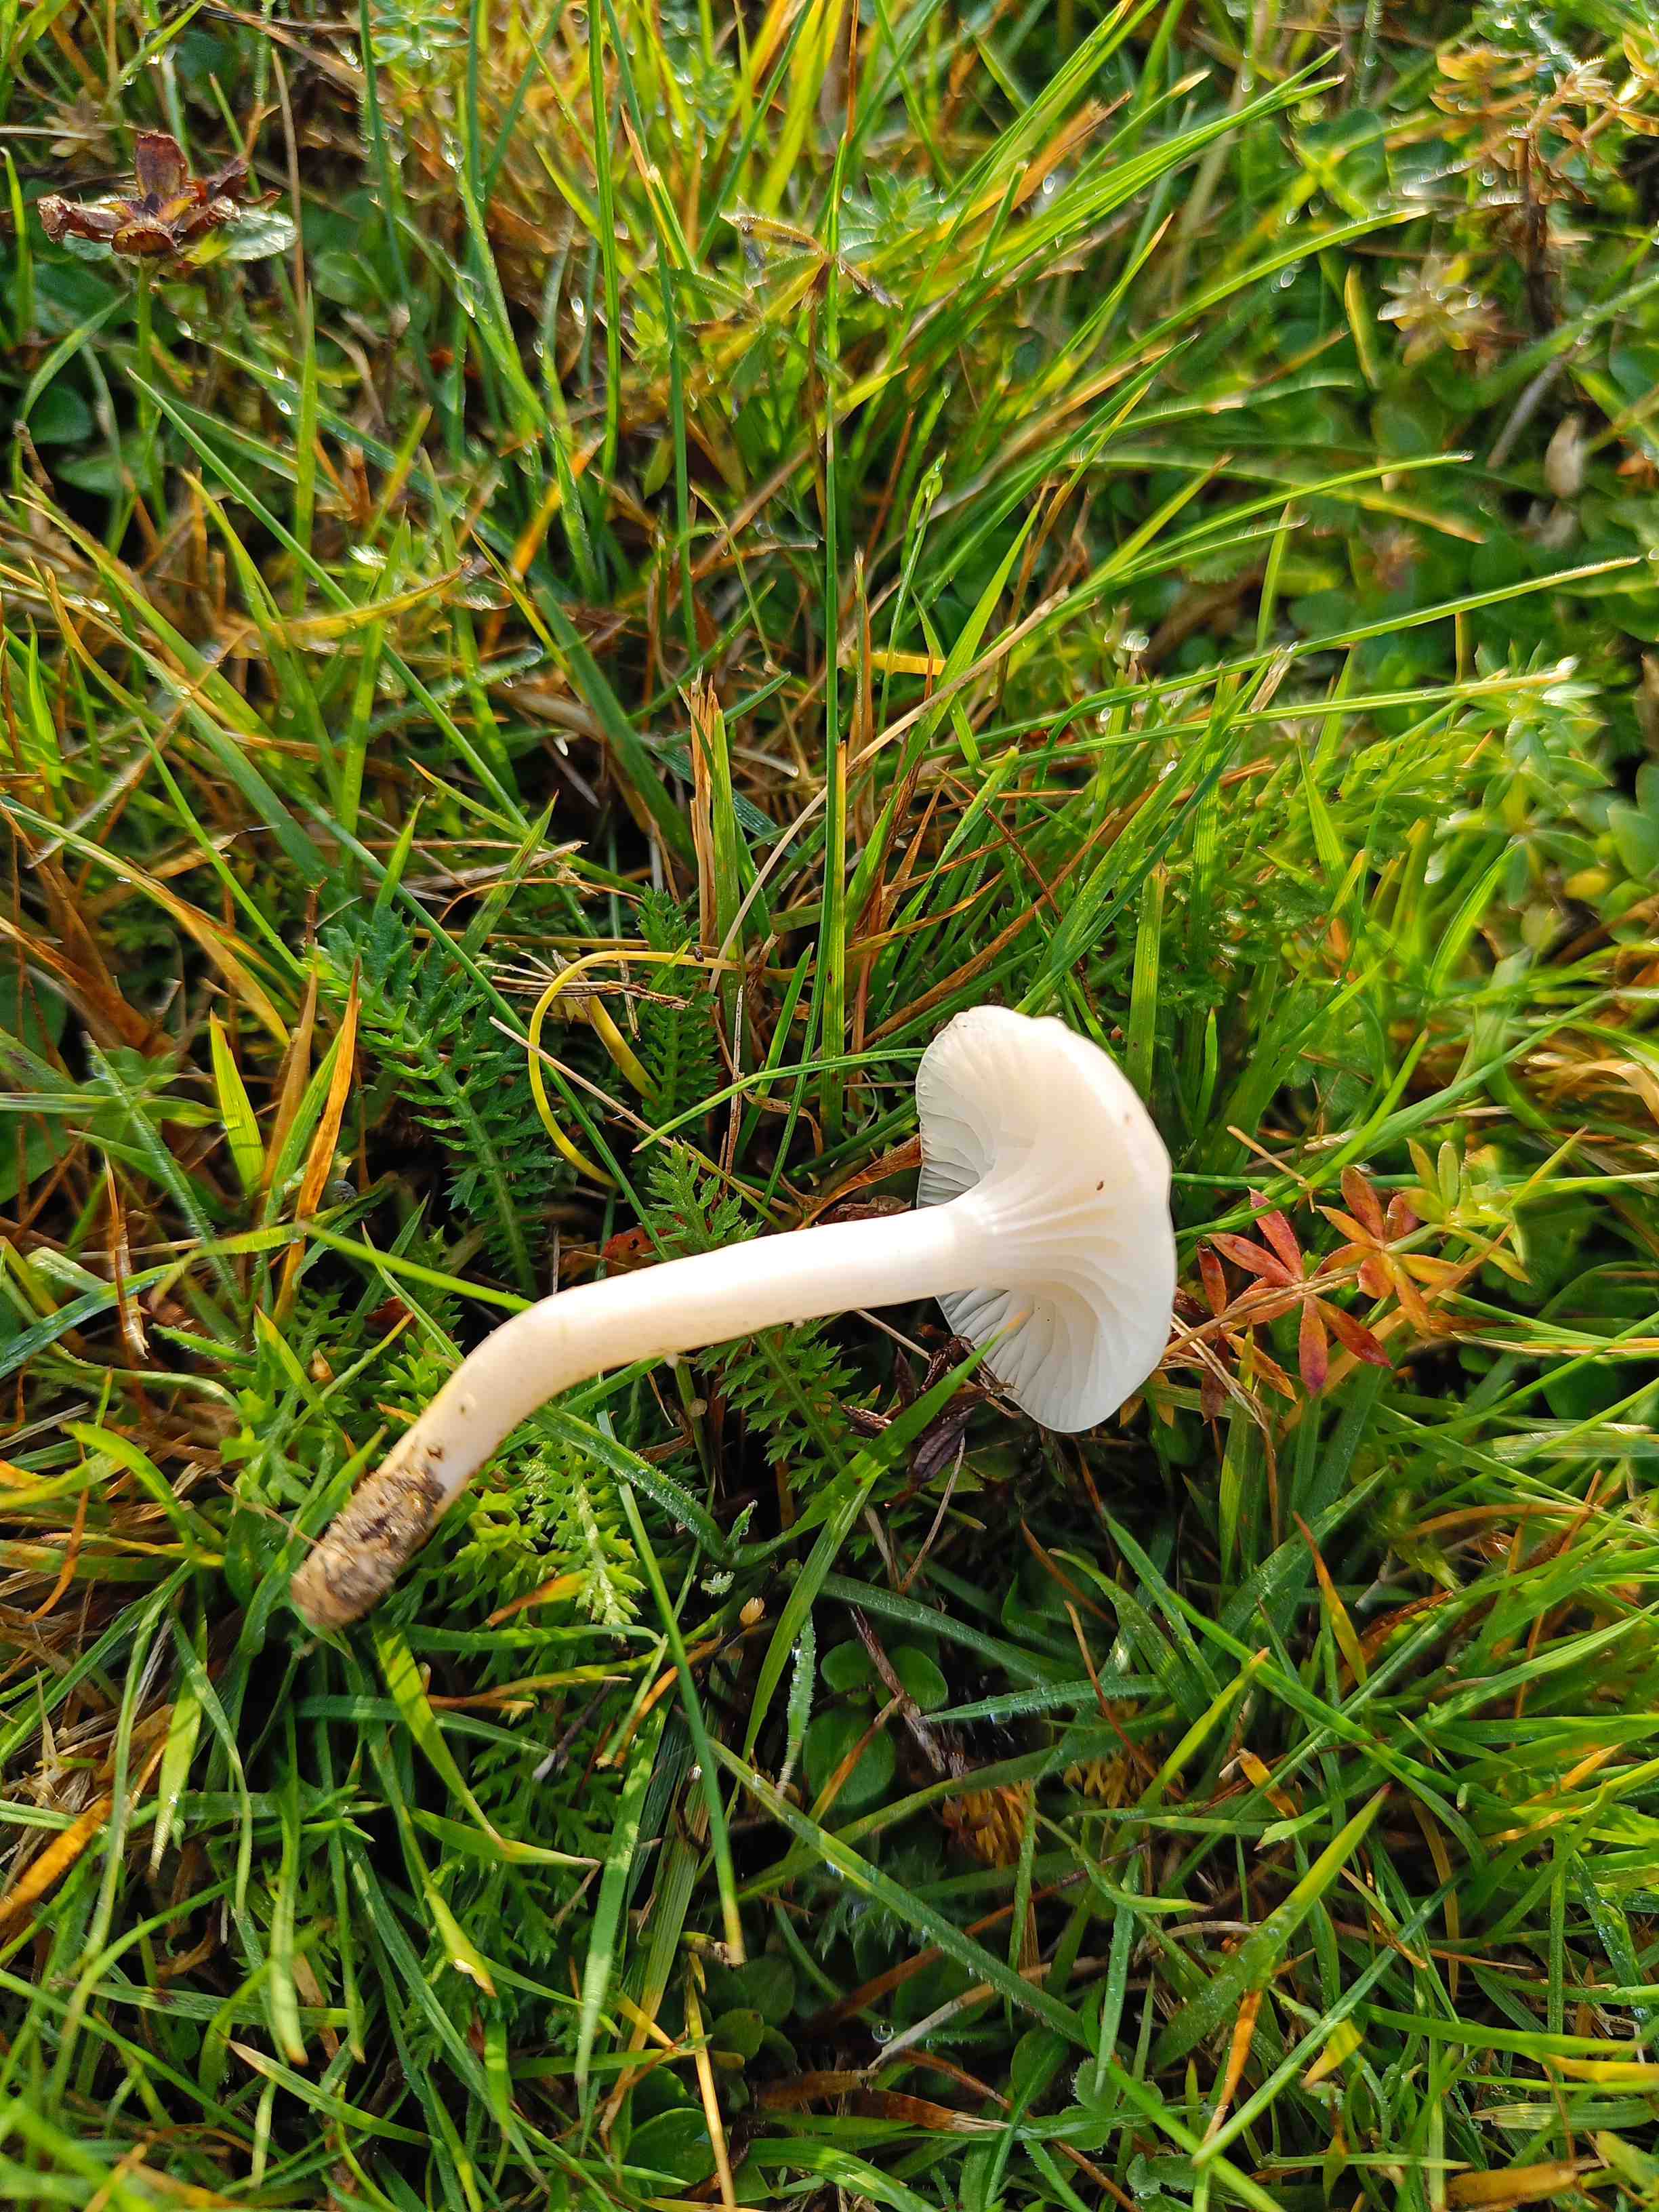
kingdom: Fungi
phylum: Basidiomycota
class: Agaricomycetes
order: Agaricales
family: Hygrophoraceae
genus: Cuphophyllus
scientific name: Cuphophyllus
